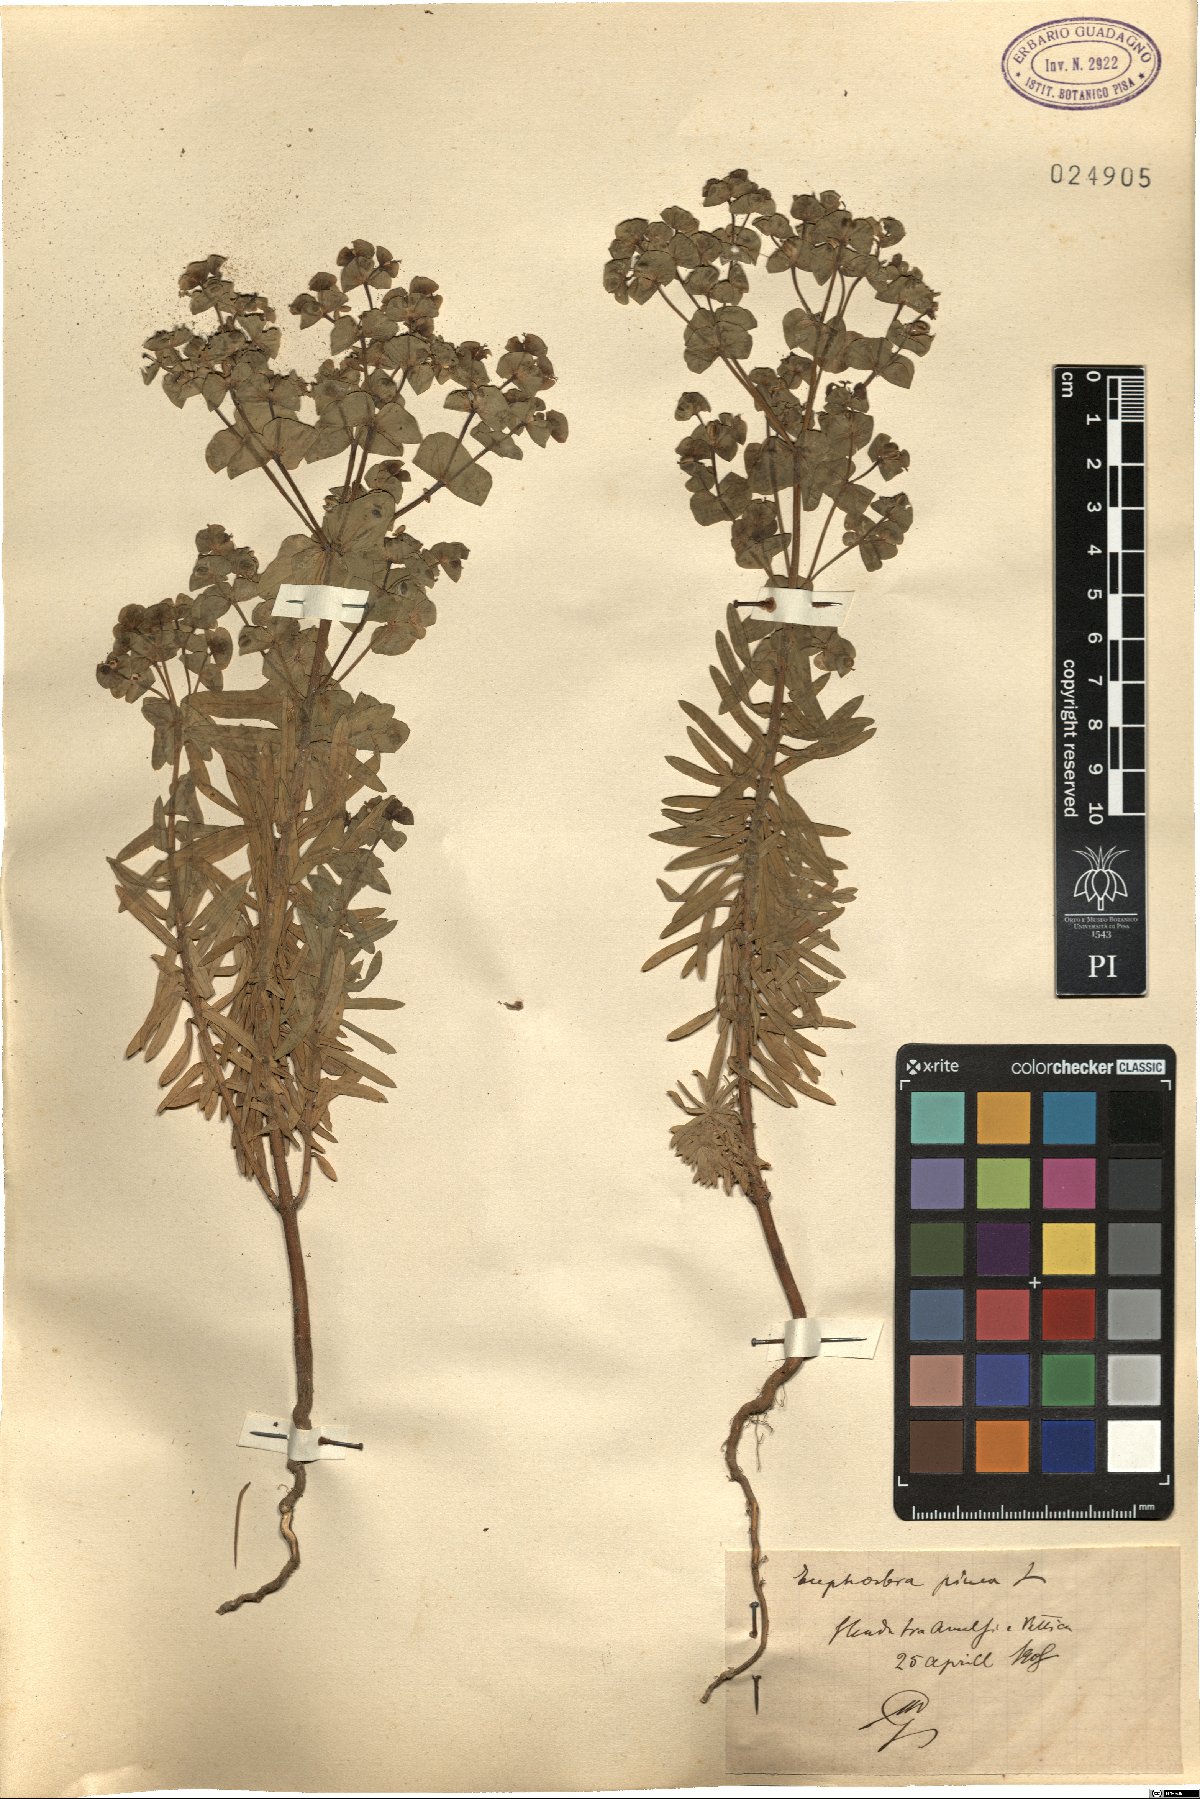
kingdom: Plantae
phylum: Tracheophyta
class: Magnoliopsida
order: Malpighiales
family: Euphorbiaceae
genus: Euphorbia
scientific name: Euphorbia segetalis
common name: Corn spurge
